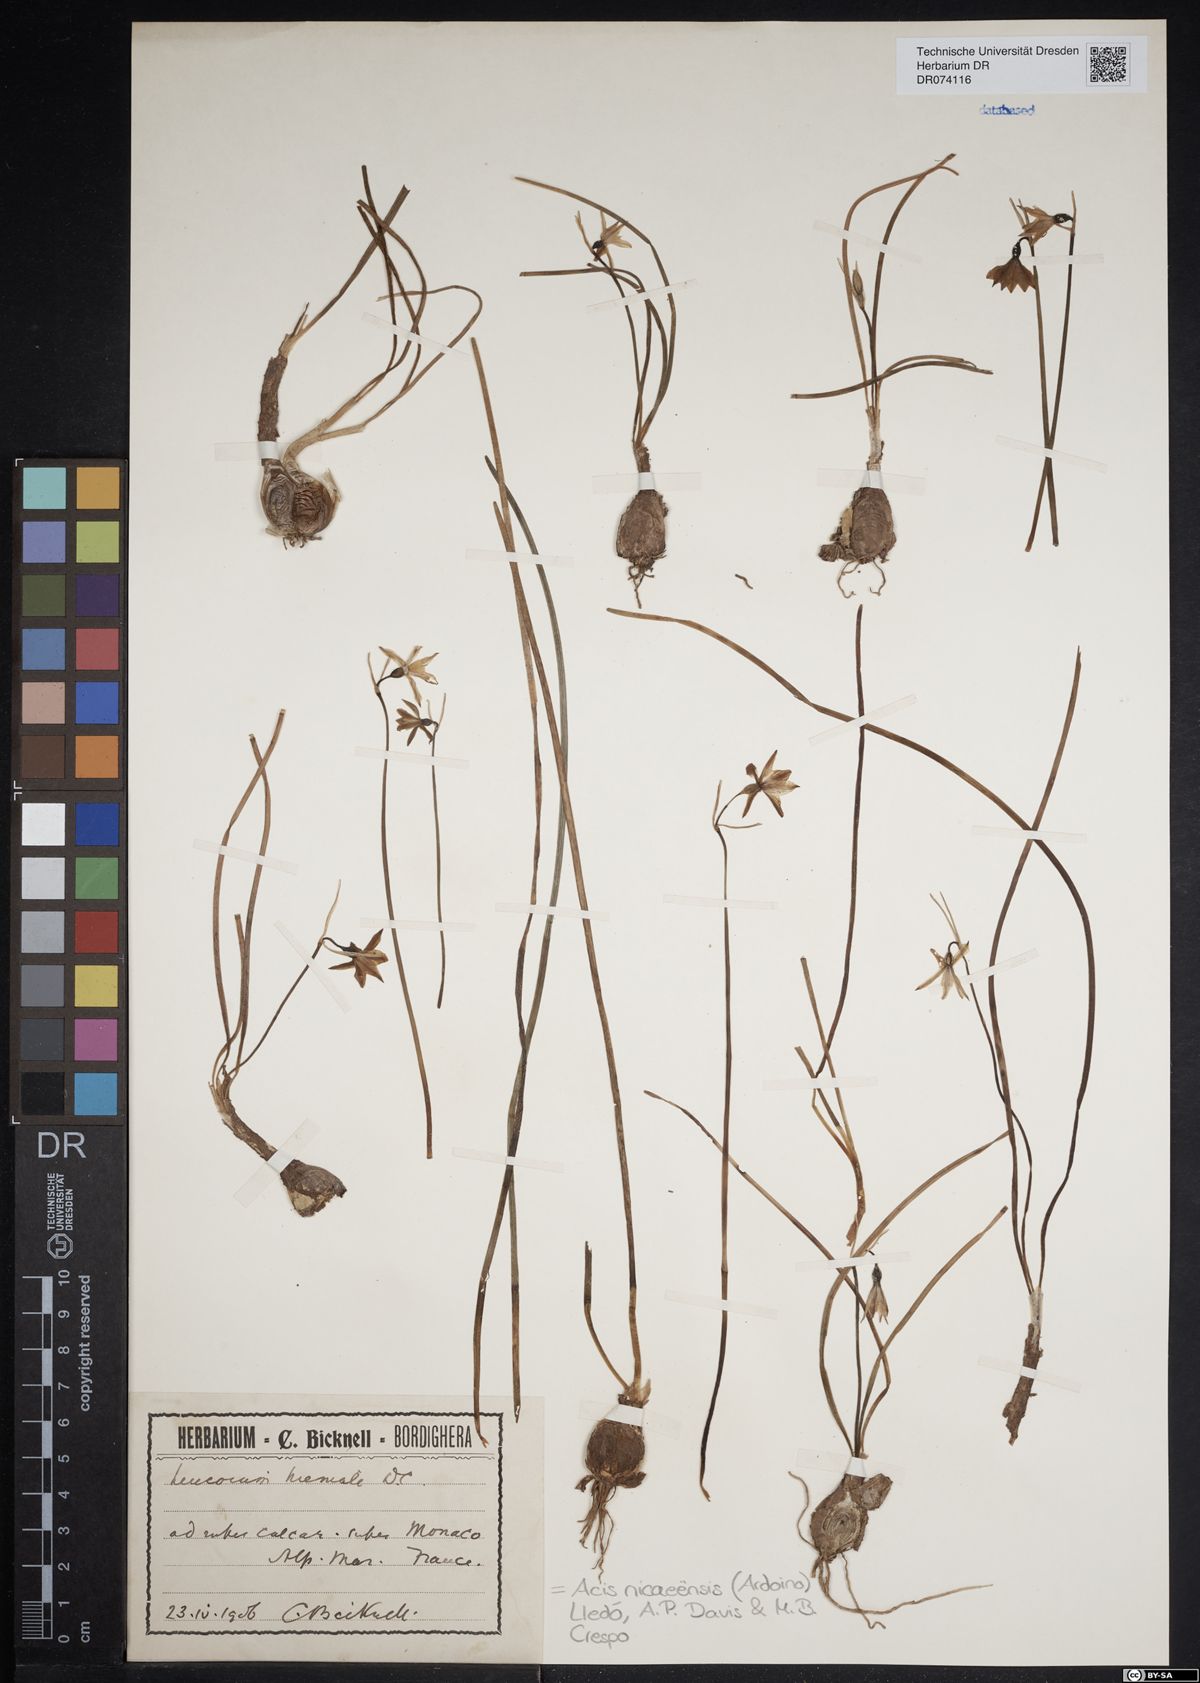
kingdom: Plantae
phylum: Tracheophyta
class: Liliopsida
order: Asparagales
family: Amaryllidaceae
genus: Acis
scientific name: Acis nicaeensis
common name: French snowflake
